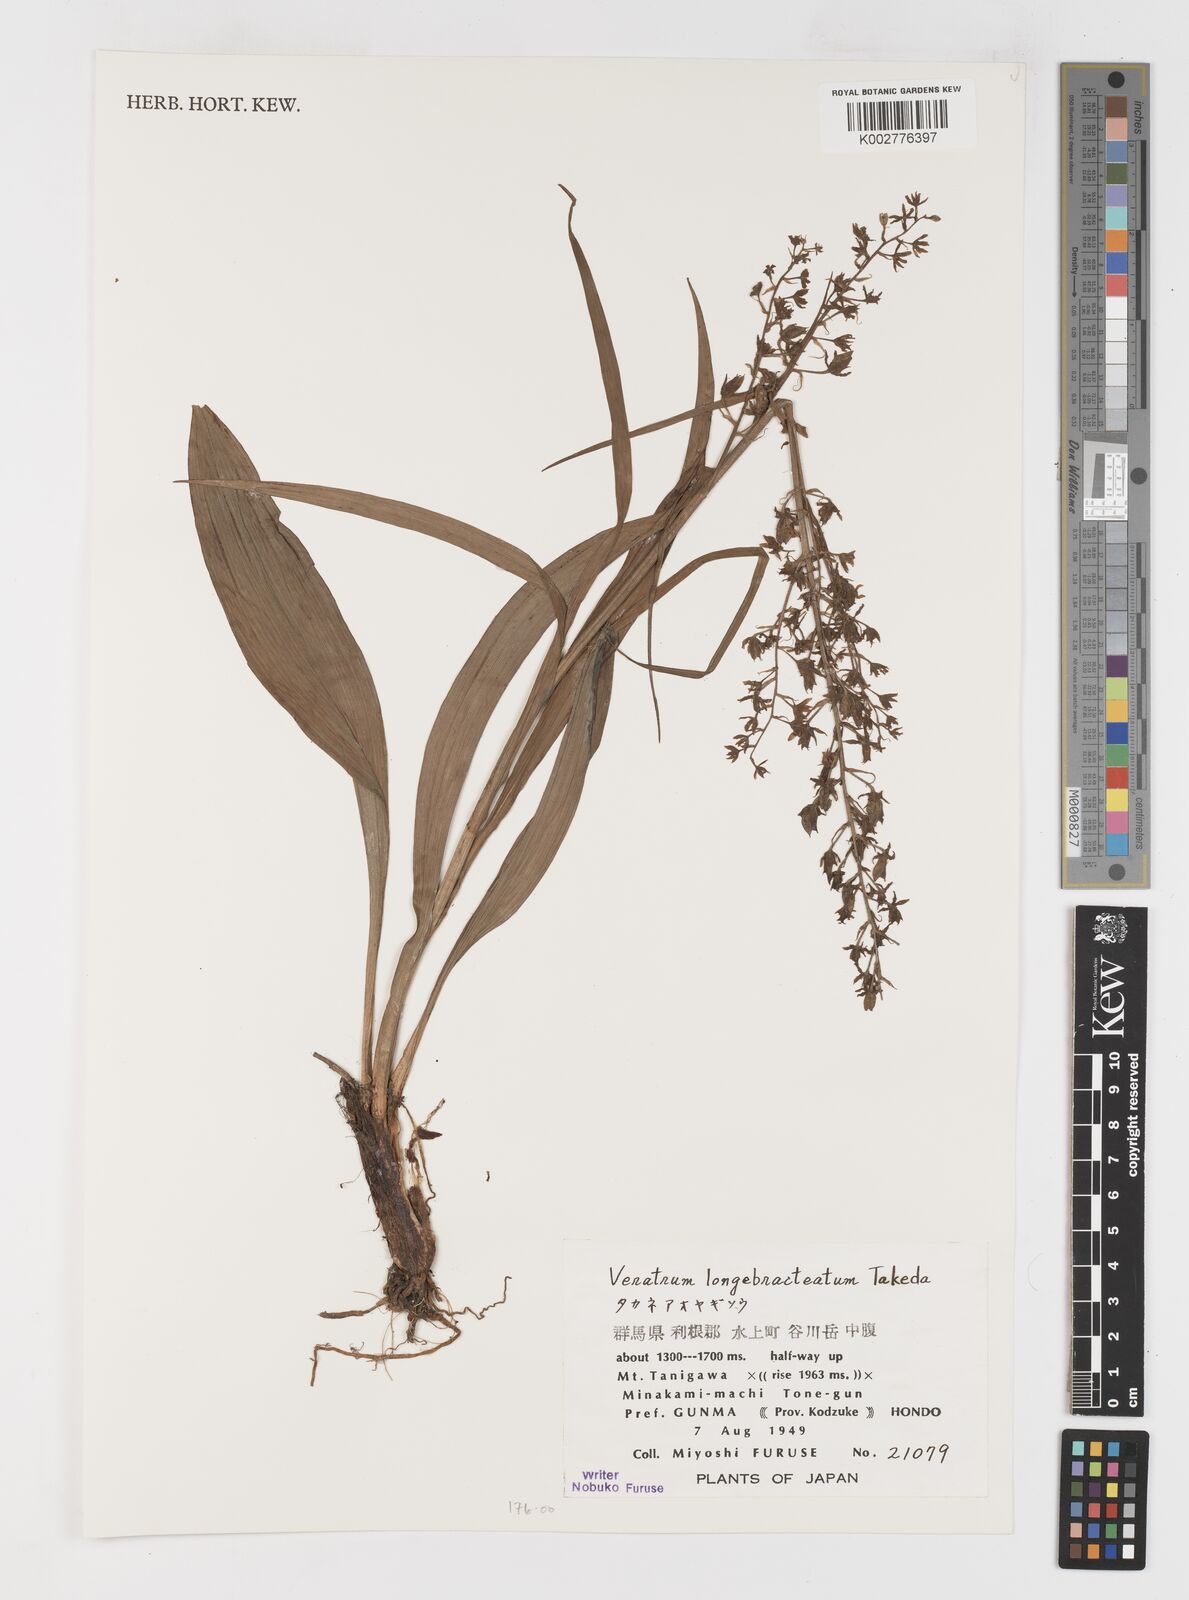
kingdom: Plantae
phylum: Tracheophyta
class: Liliopsida
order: Liliales
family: Melanthiaceae
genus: Veratrum
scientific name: Veratrum longebracteatum
